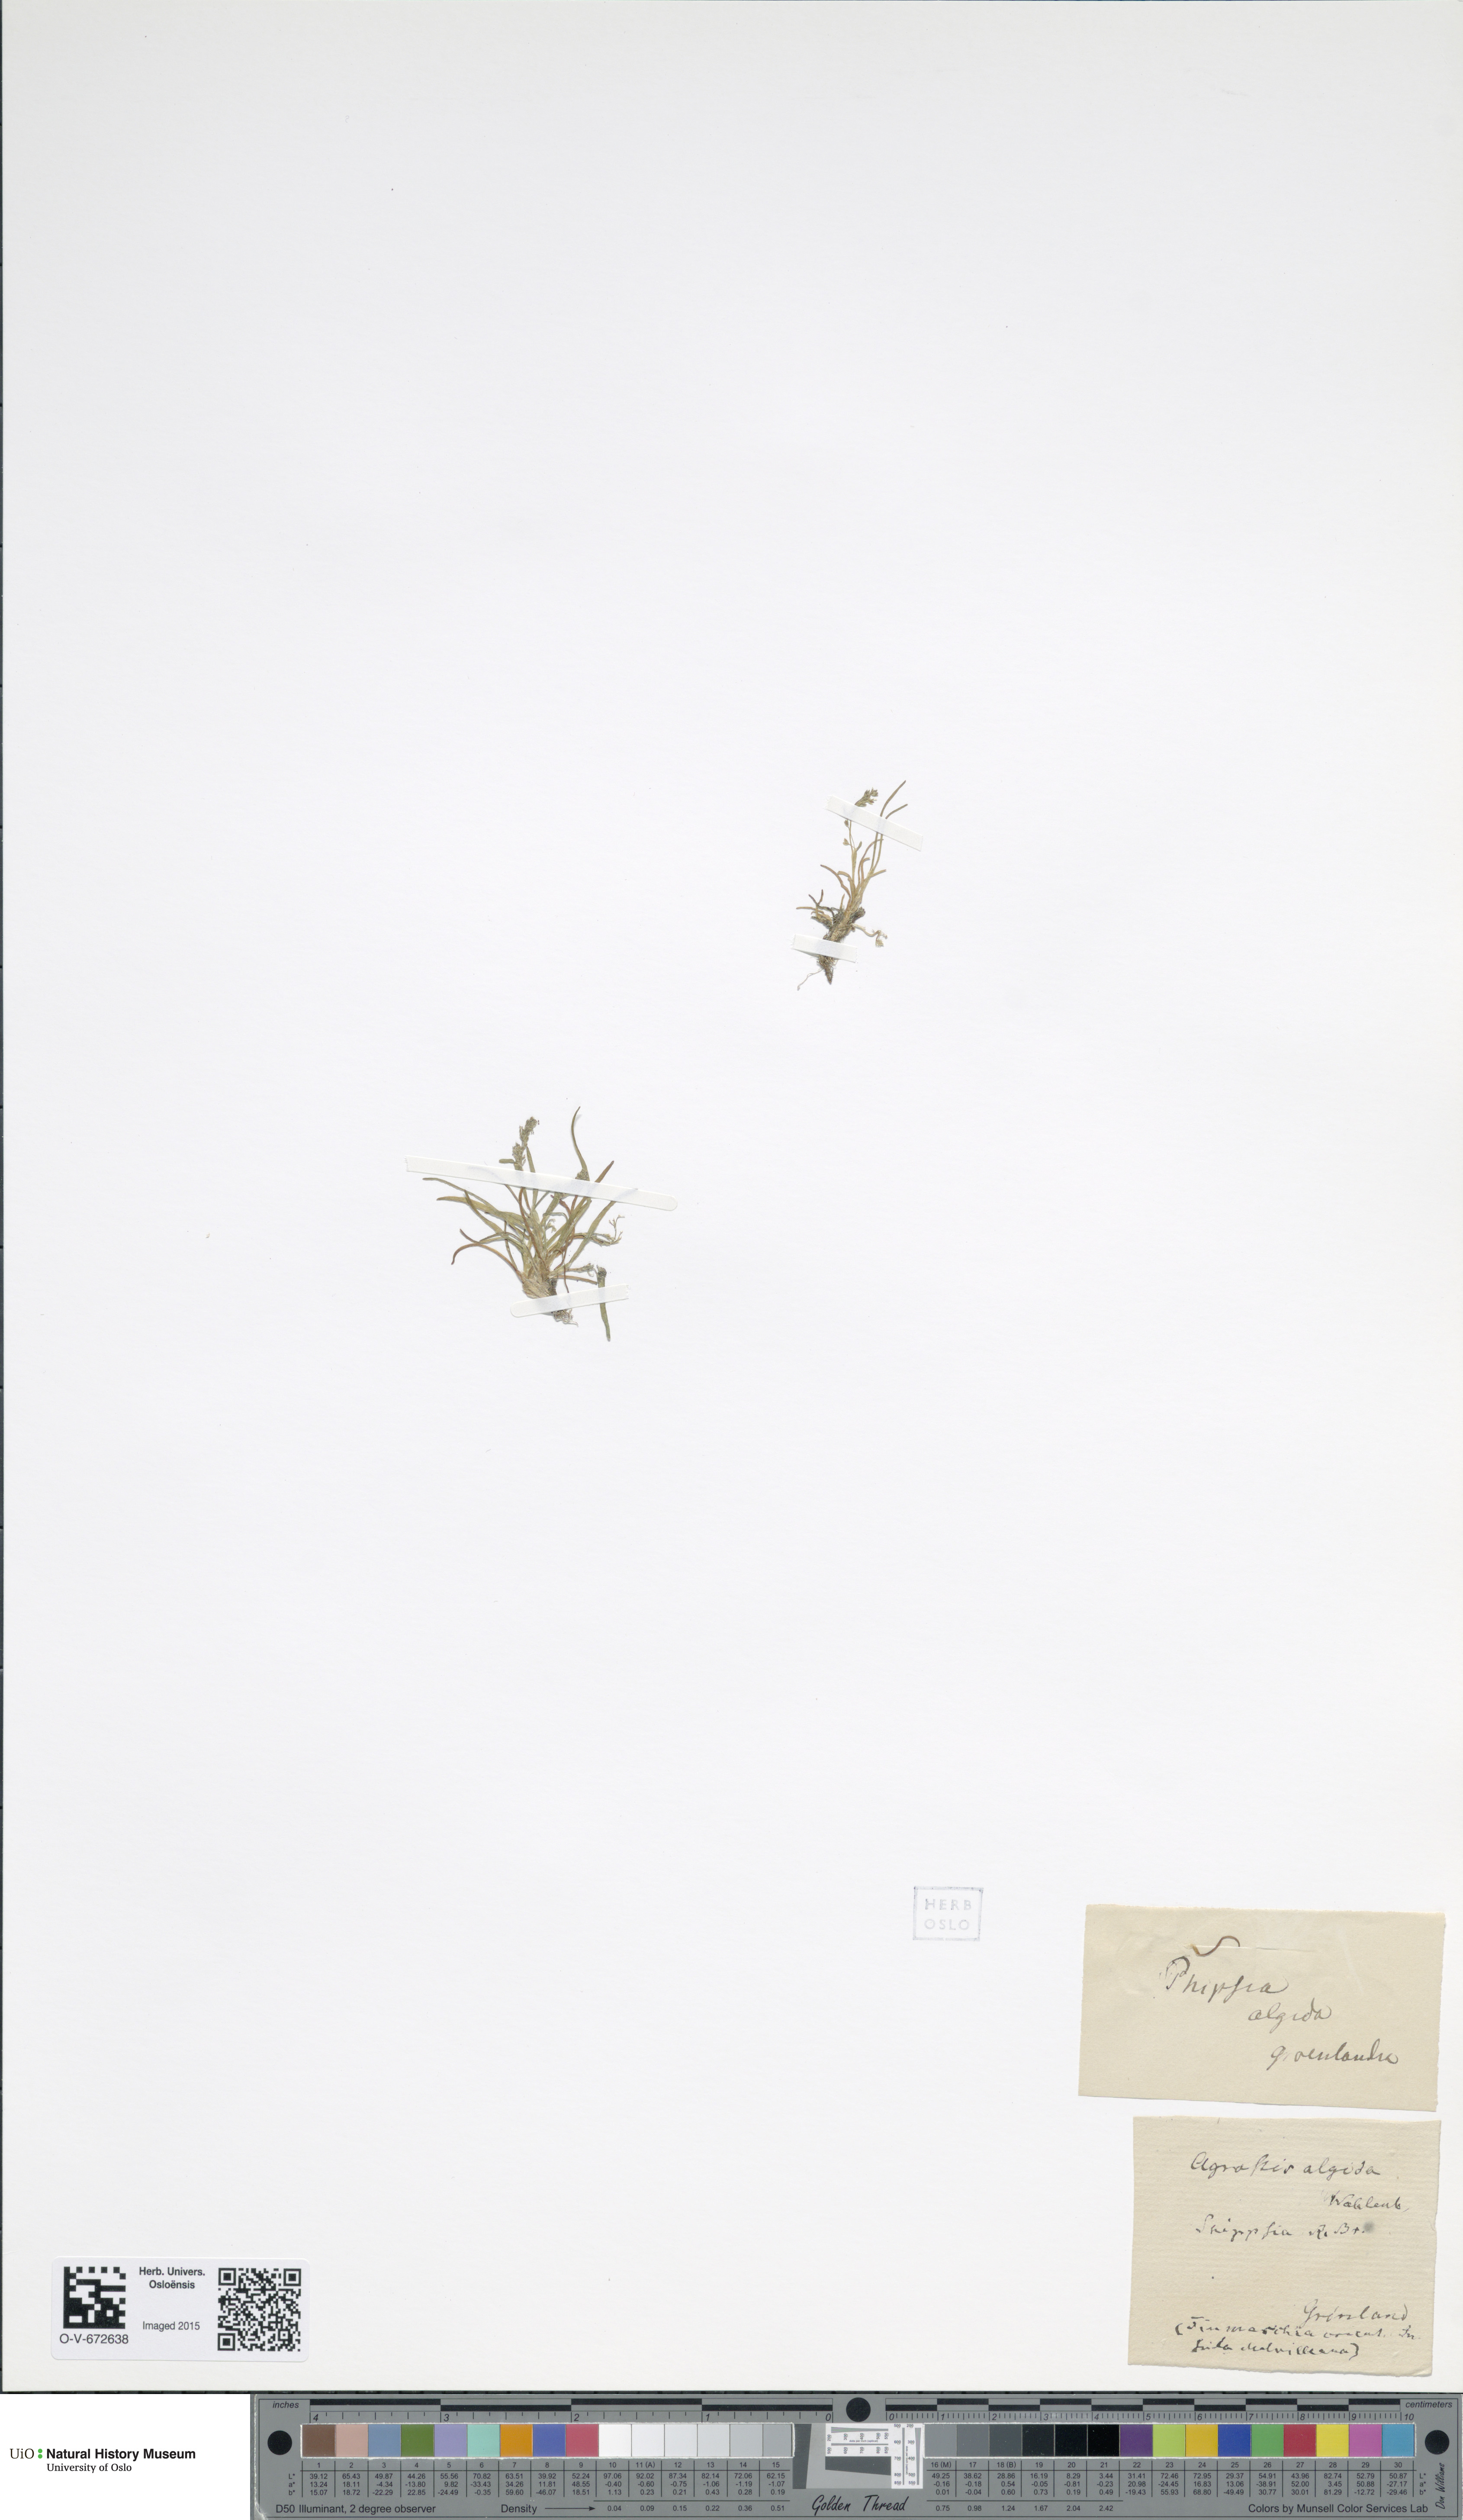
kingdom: Plantae
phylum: Tracheophyta
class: Liliopsida
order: Poales
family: Poaceae
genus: Phippsia
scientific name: Phippsia algida
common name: Ice grass
